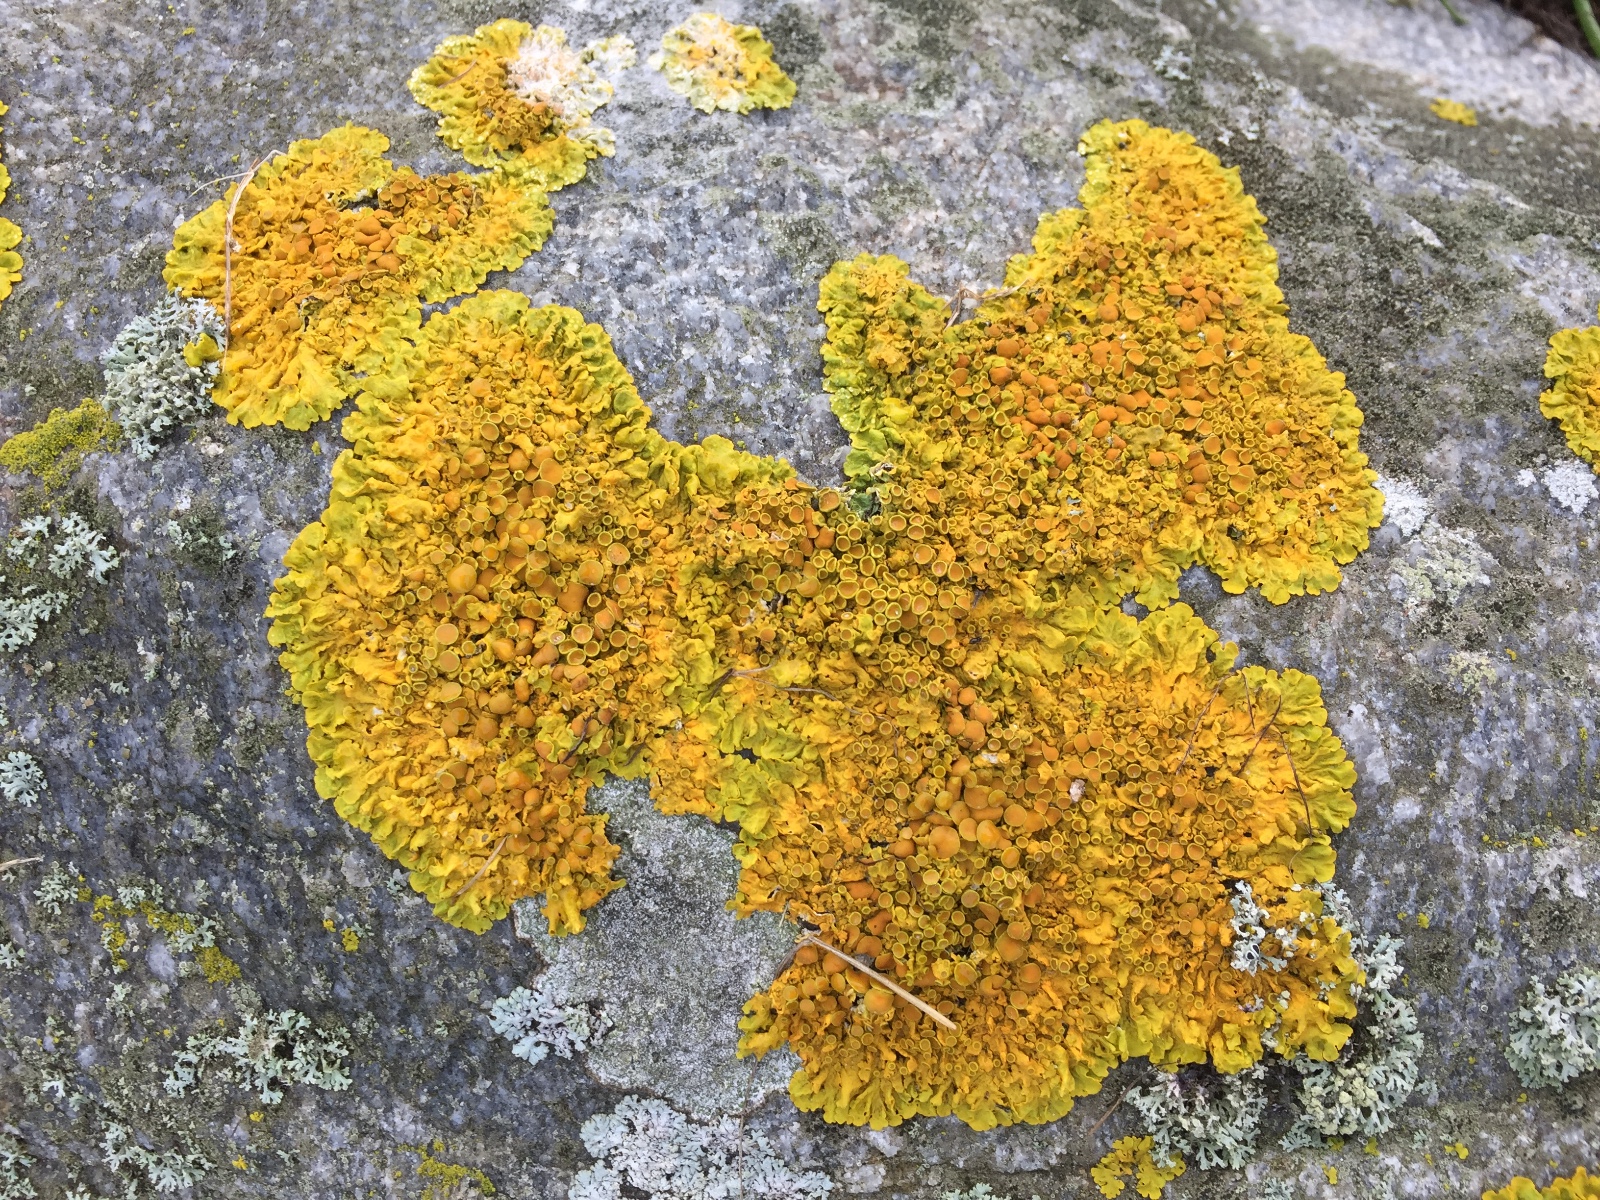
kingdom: Fungi
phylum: Ascomycota
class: Lecanoromycetes
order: Teloschistales
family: Teloschistaceae
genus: Xanthoria
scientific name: Xanthoria parietina
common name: almindelig væggelav
